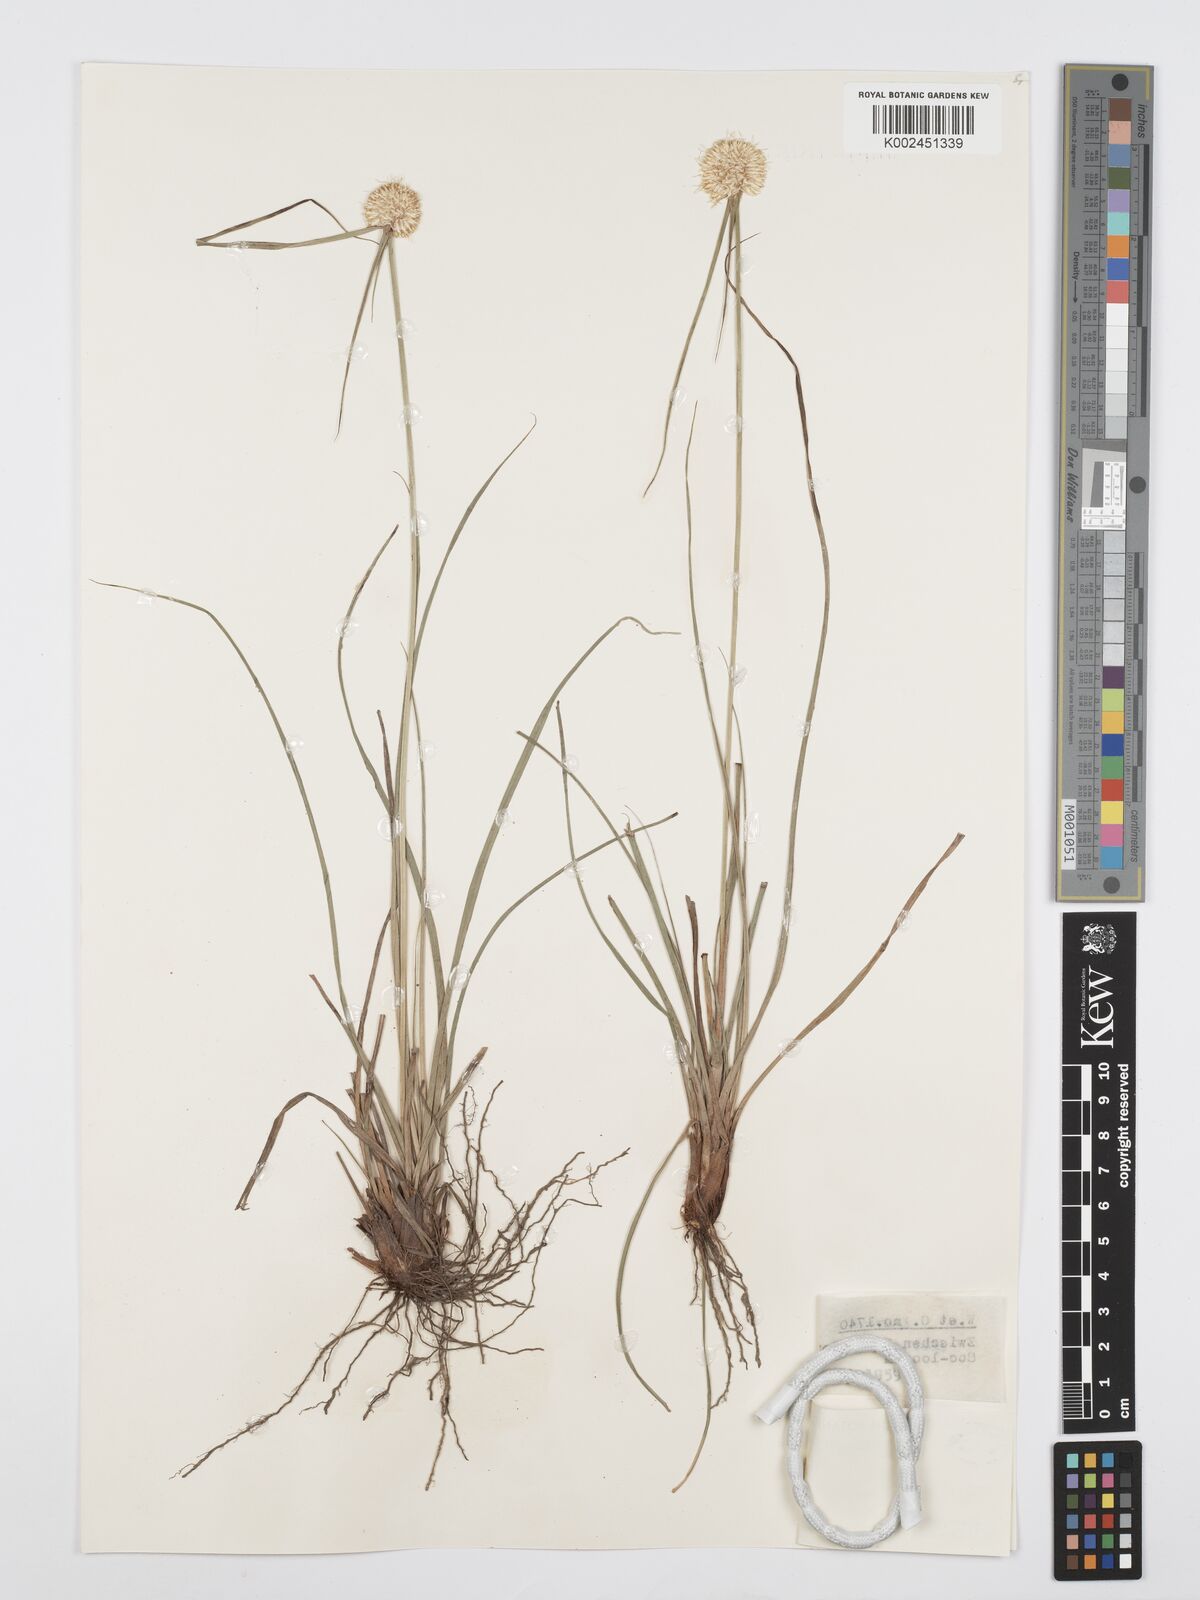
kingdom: Plantae
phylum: Tracheophyta
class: Liliopsida
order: Poales
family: Cyperaceae
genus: Cyperus
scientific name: Cyperus
